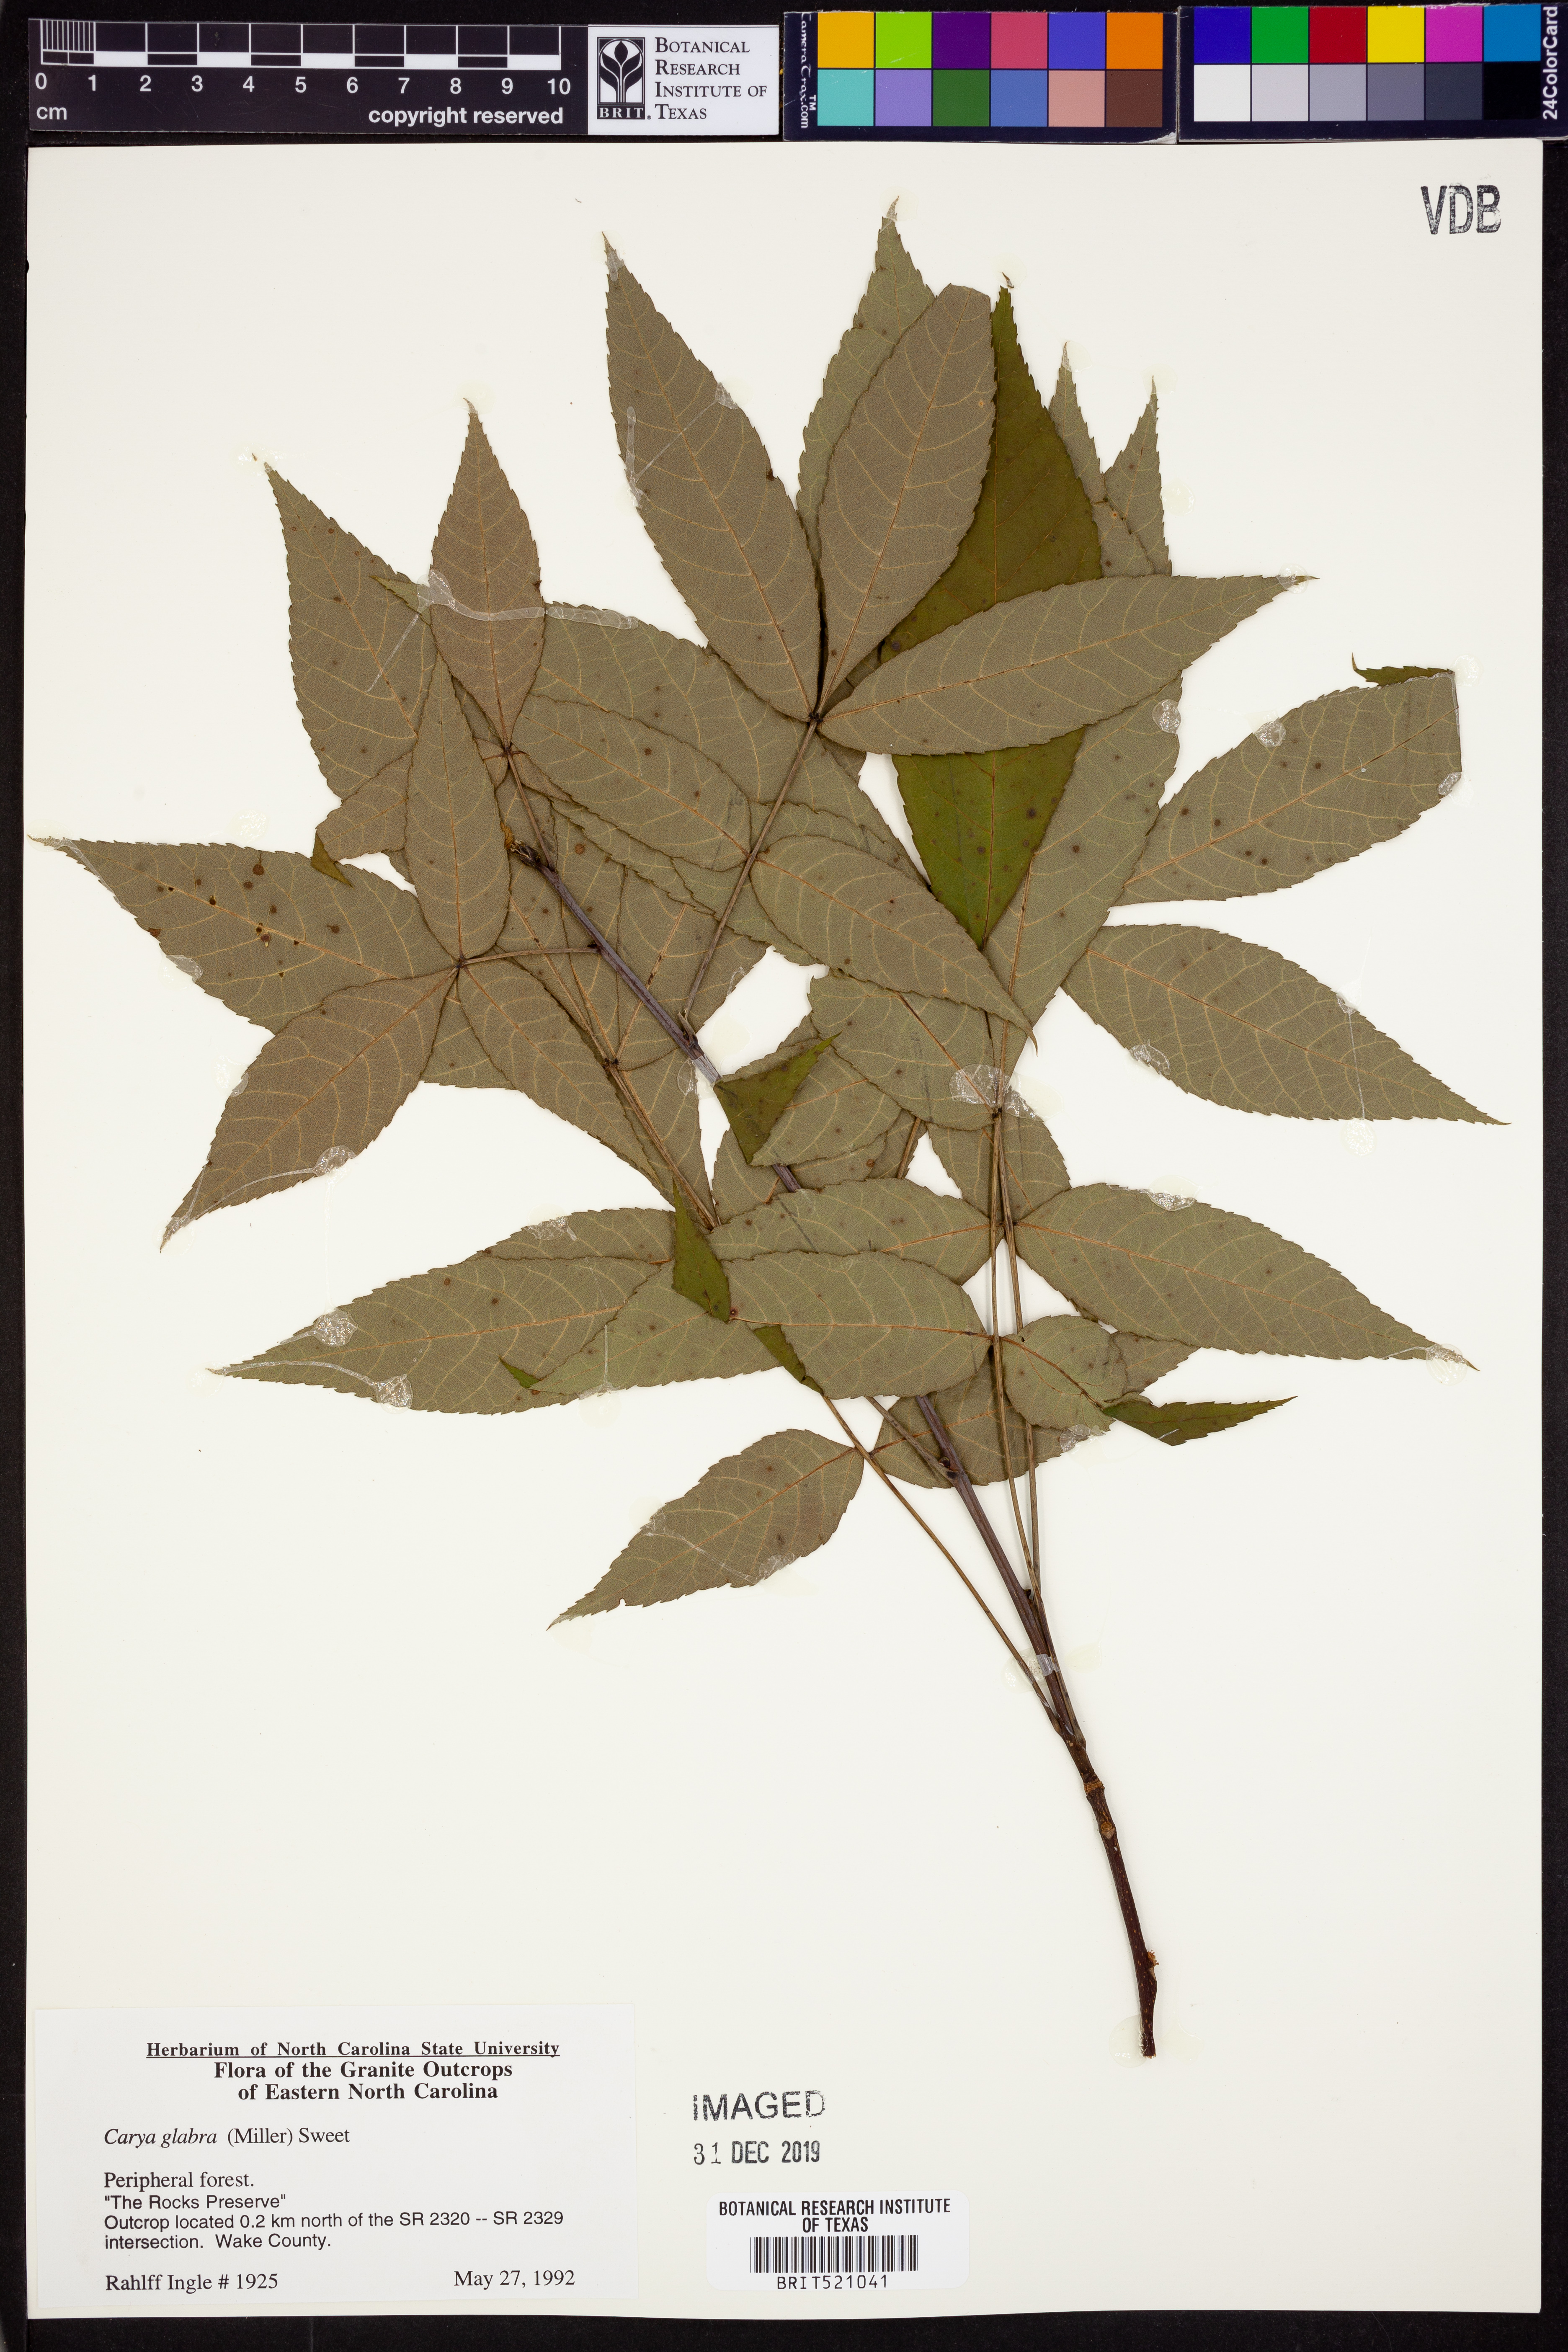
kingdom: Plantae
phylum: Tracheophyta
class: Magnoliopsida
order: Fagales
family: Juglandaceae
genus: Carya
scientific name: Carya glabra
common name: Pignut hickory
